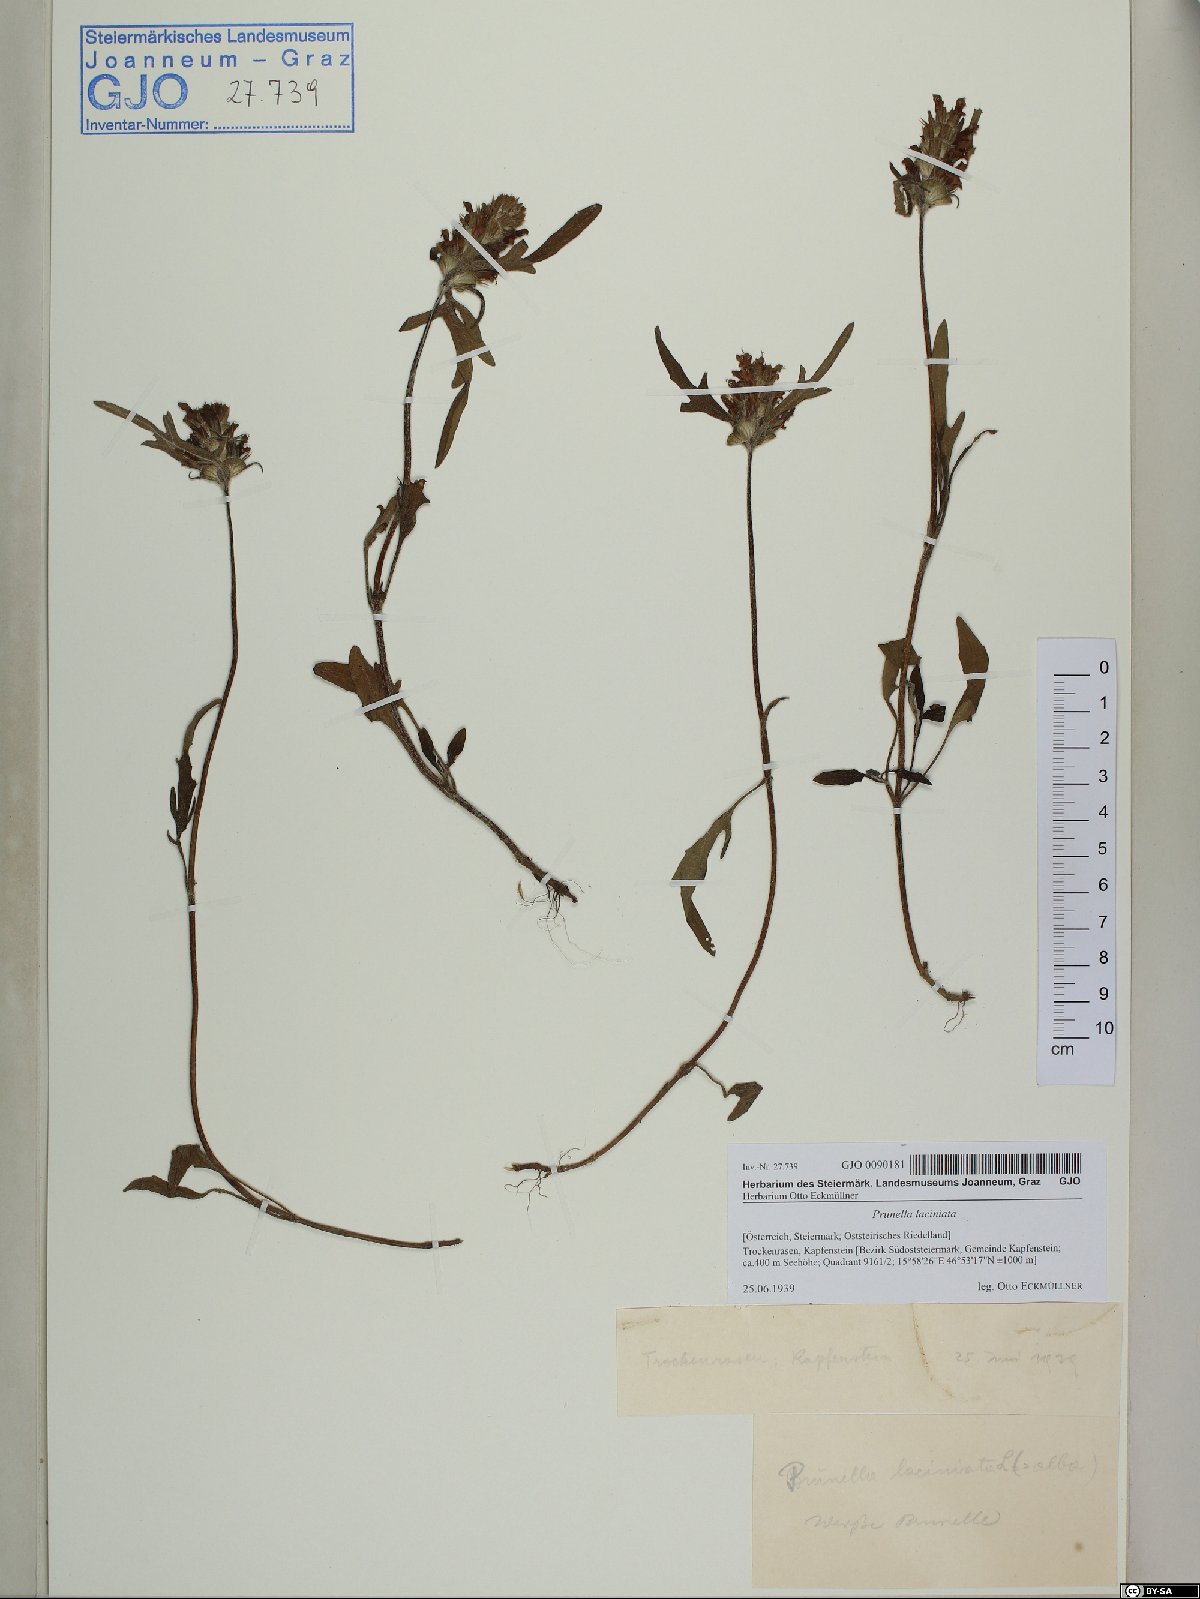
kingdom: Plantae
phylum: Tracheophyta
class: Magnoliopsida
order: Lamiales
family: Lamiaceae
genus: Prunella
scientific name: Prunella laciniata
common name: Cut-leaved selfheal
